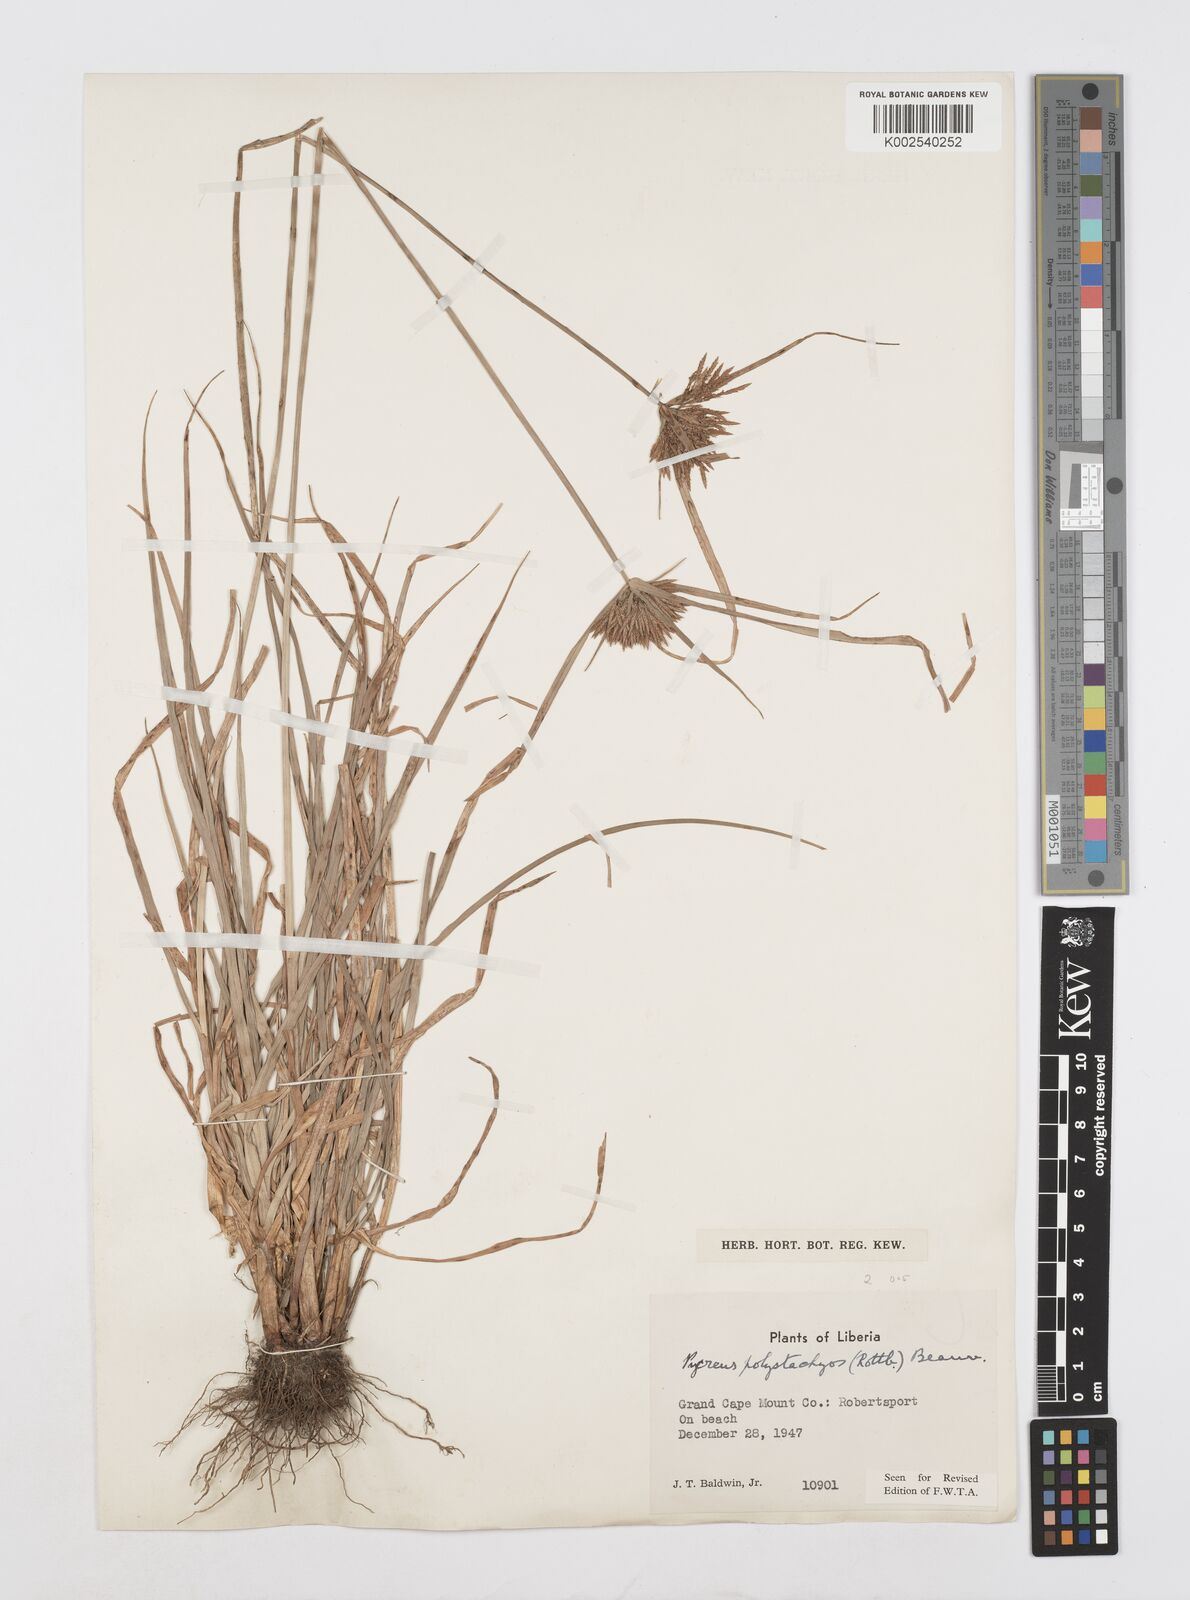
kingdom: Plantae
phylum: Tracheophyta
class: Liliopsida
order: Poales
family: Cyperaceae
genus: Cyperus
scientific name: Cyperus polystachyos
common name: Bunchy flat sedge
